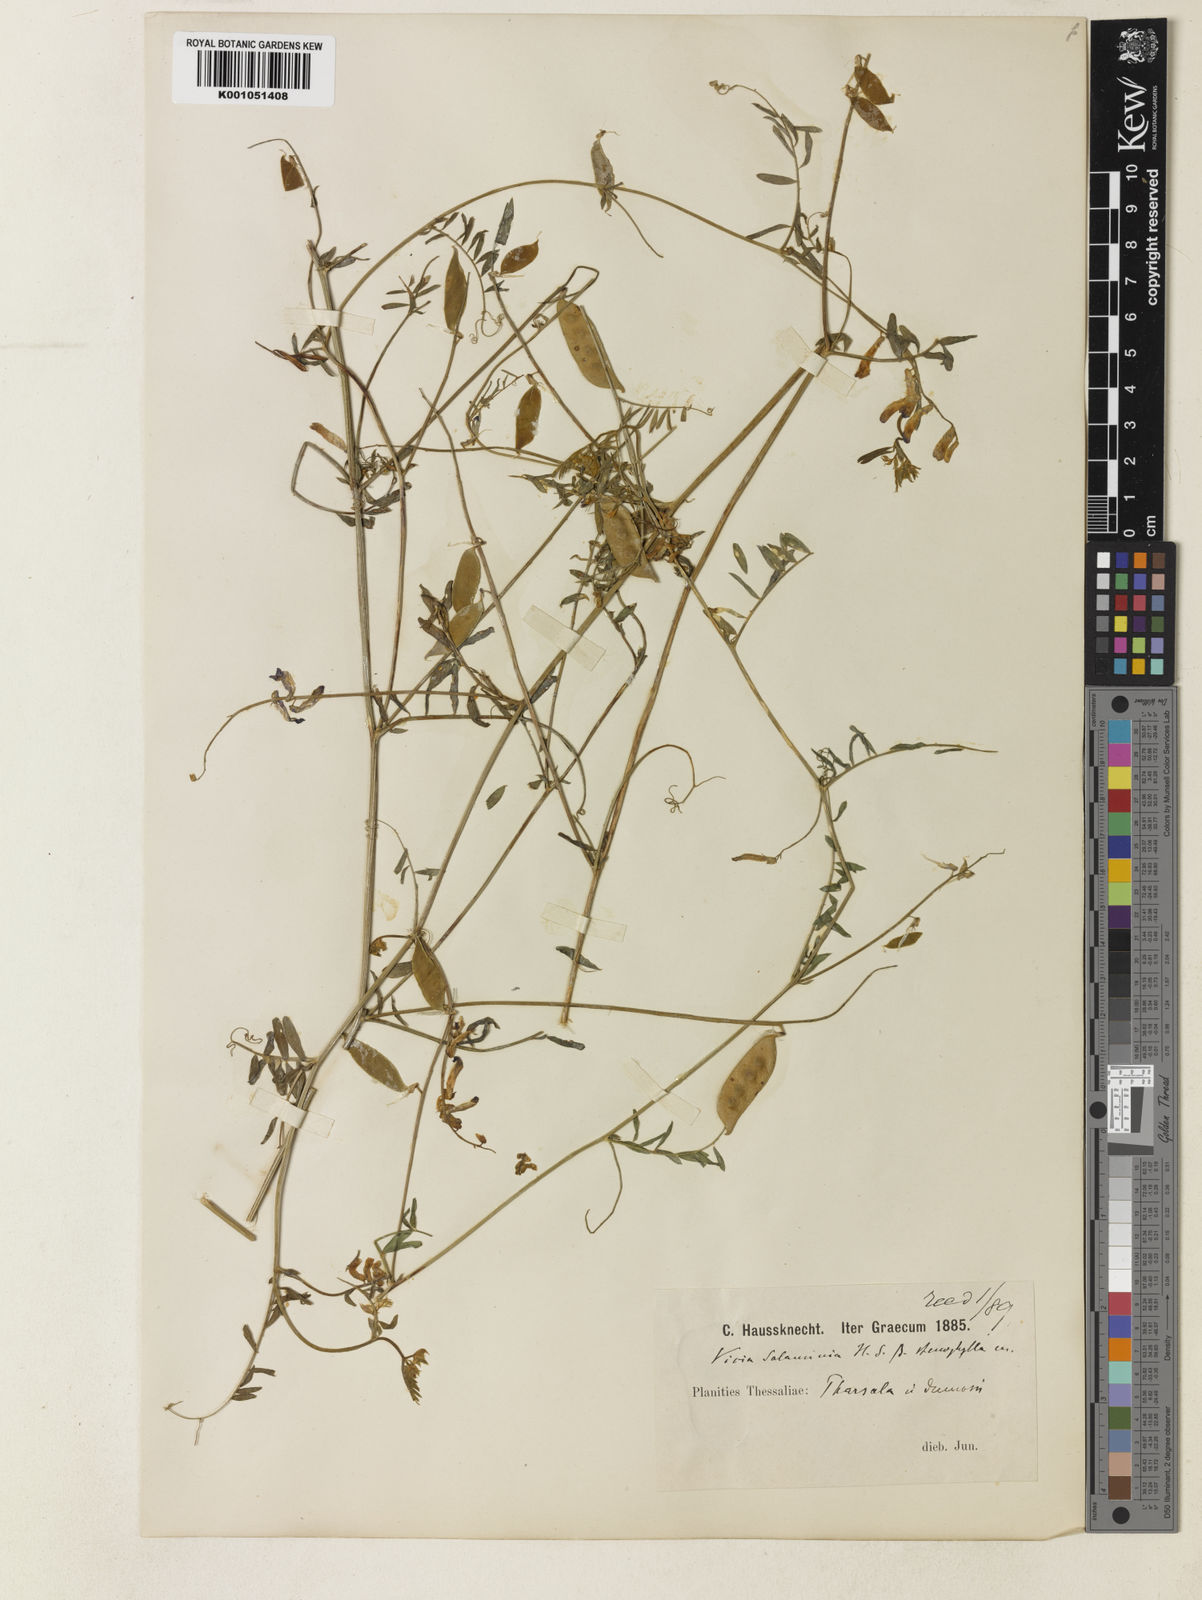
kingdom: Plantae
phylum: Tracheophyta
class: Magnoliopsida
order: Fabales
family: Fabaceae
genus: Vicia
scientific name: Vicia eriocarpa
